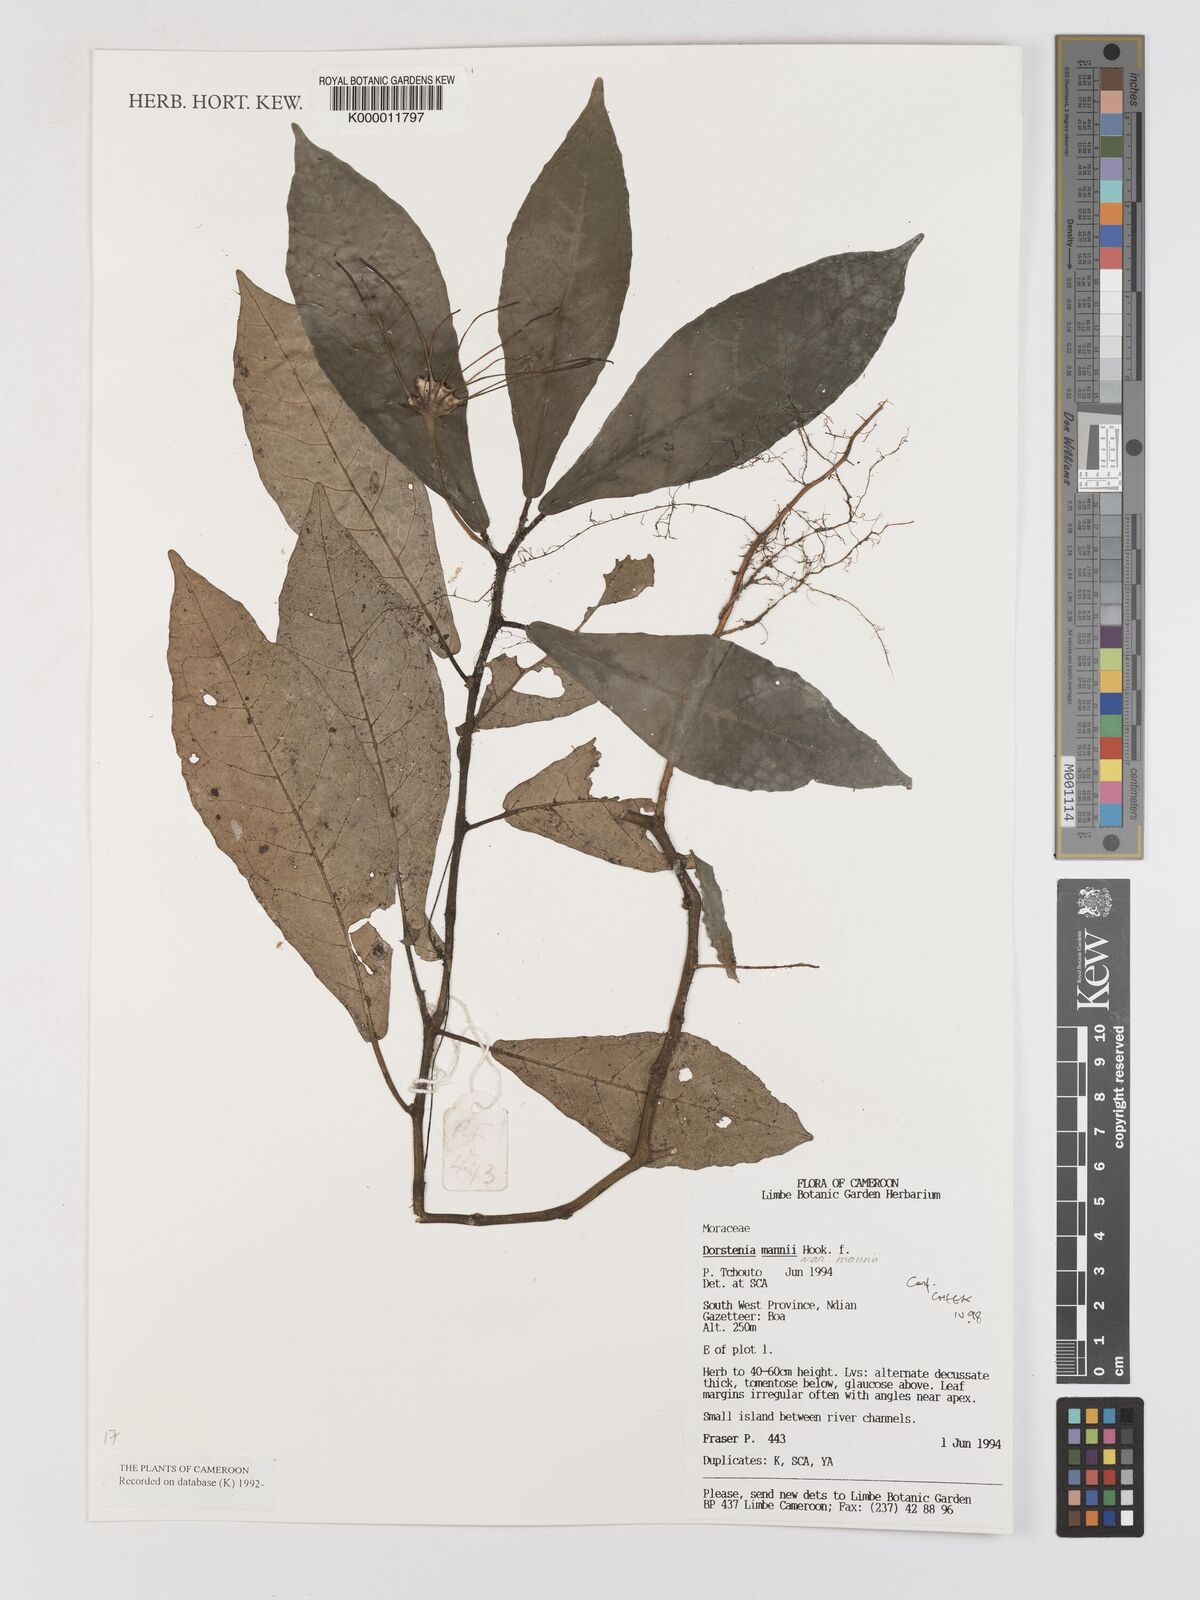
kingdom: Plantae
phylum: Tracheophyta
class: Magnoliopsida
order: Rosales
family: Moraceae
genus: Dorstenia
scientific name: Dorstenia mannii
